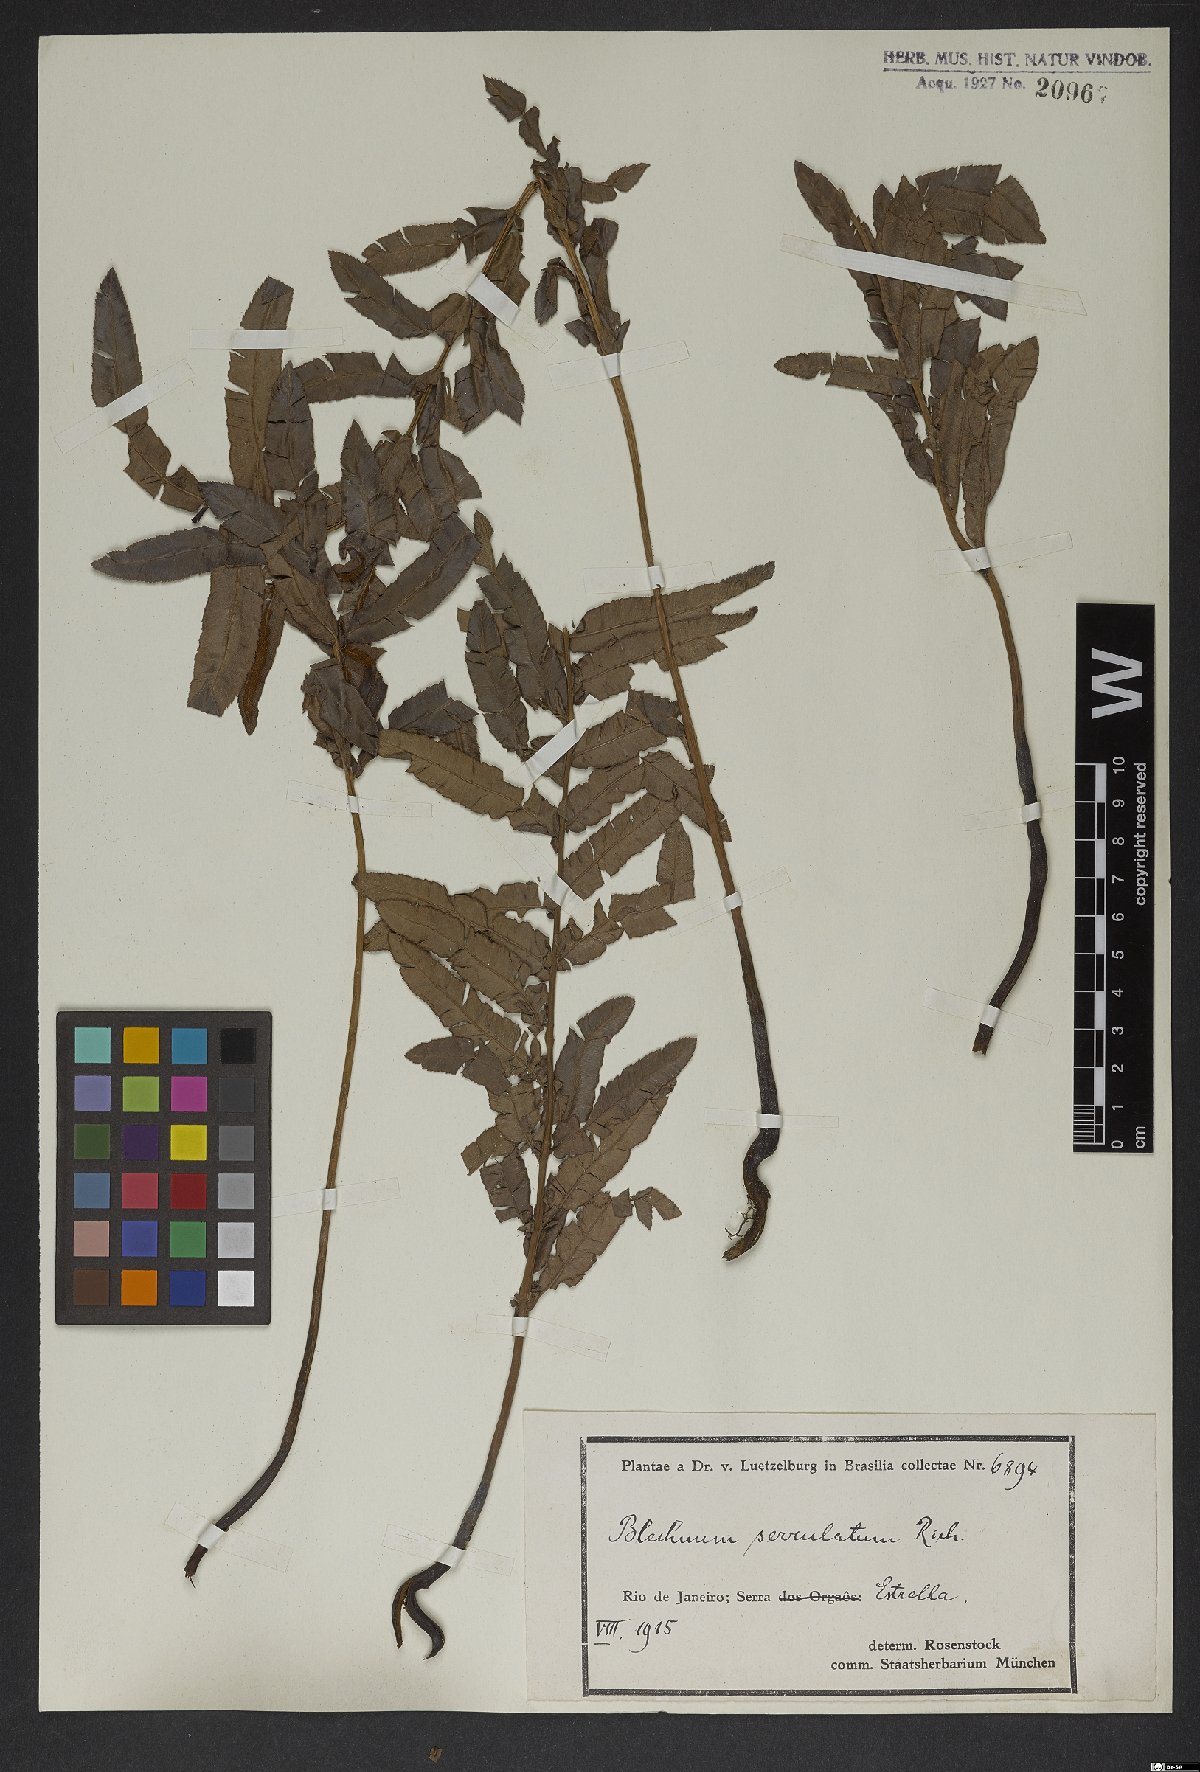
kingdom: Plantae
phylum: Tracheophyta
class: Polypodiopsida
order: Polypodiales
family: Blechnaceae
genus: Telmatoblechnum
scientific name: Telmatoblechnum serrulatum
